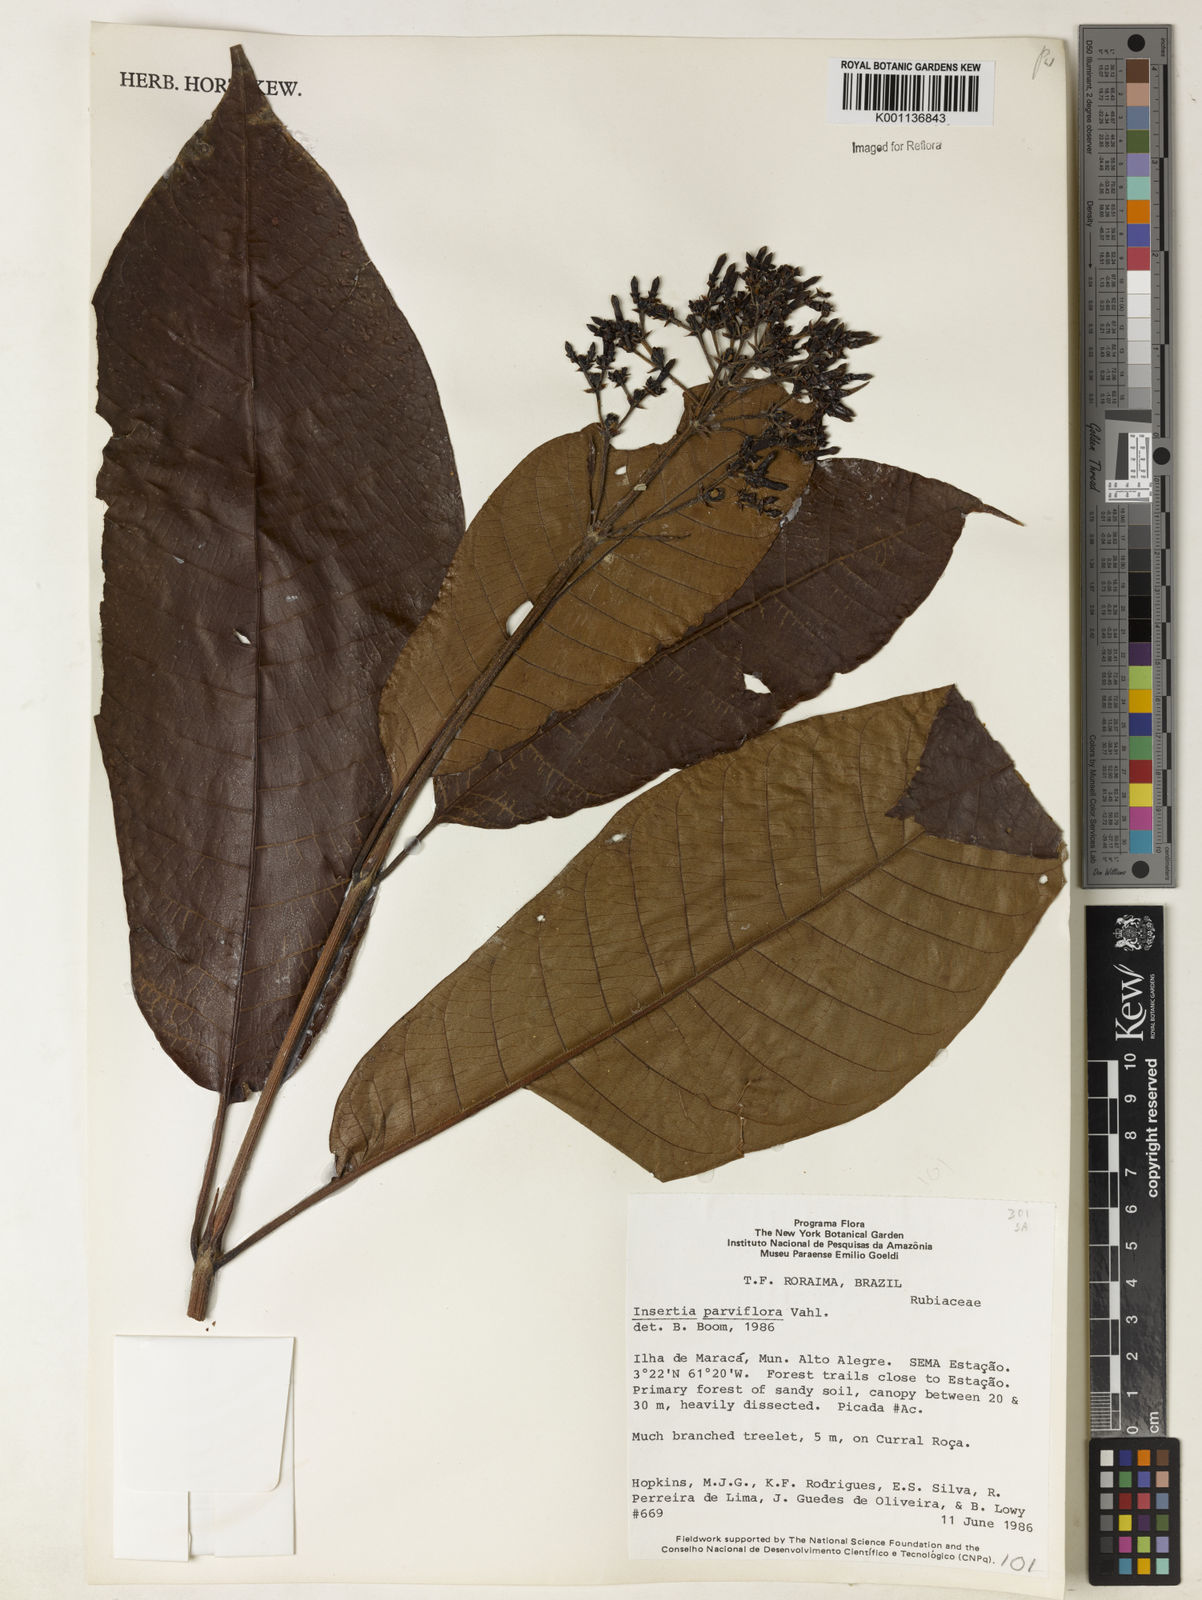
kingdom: Plantae
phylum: Tracheophyta
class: Magnoliopsida
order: Gentianales
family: Rubiaceae
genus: Isertia
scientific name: Isertia parviflora
